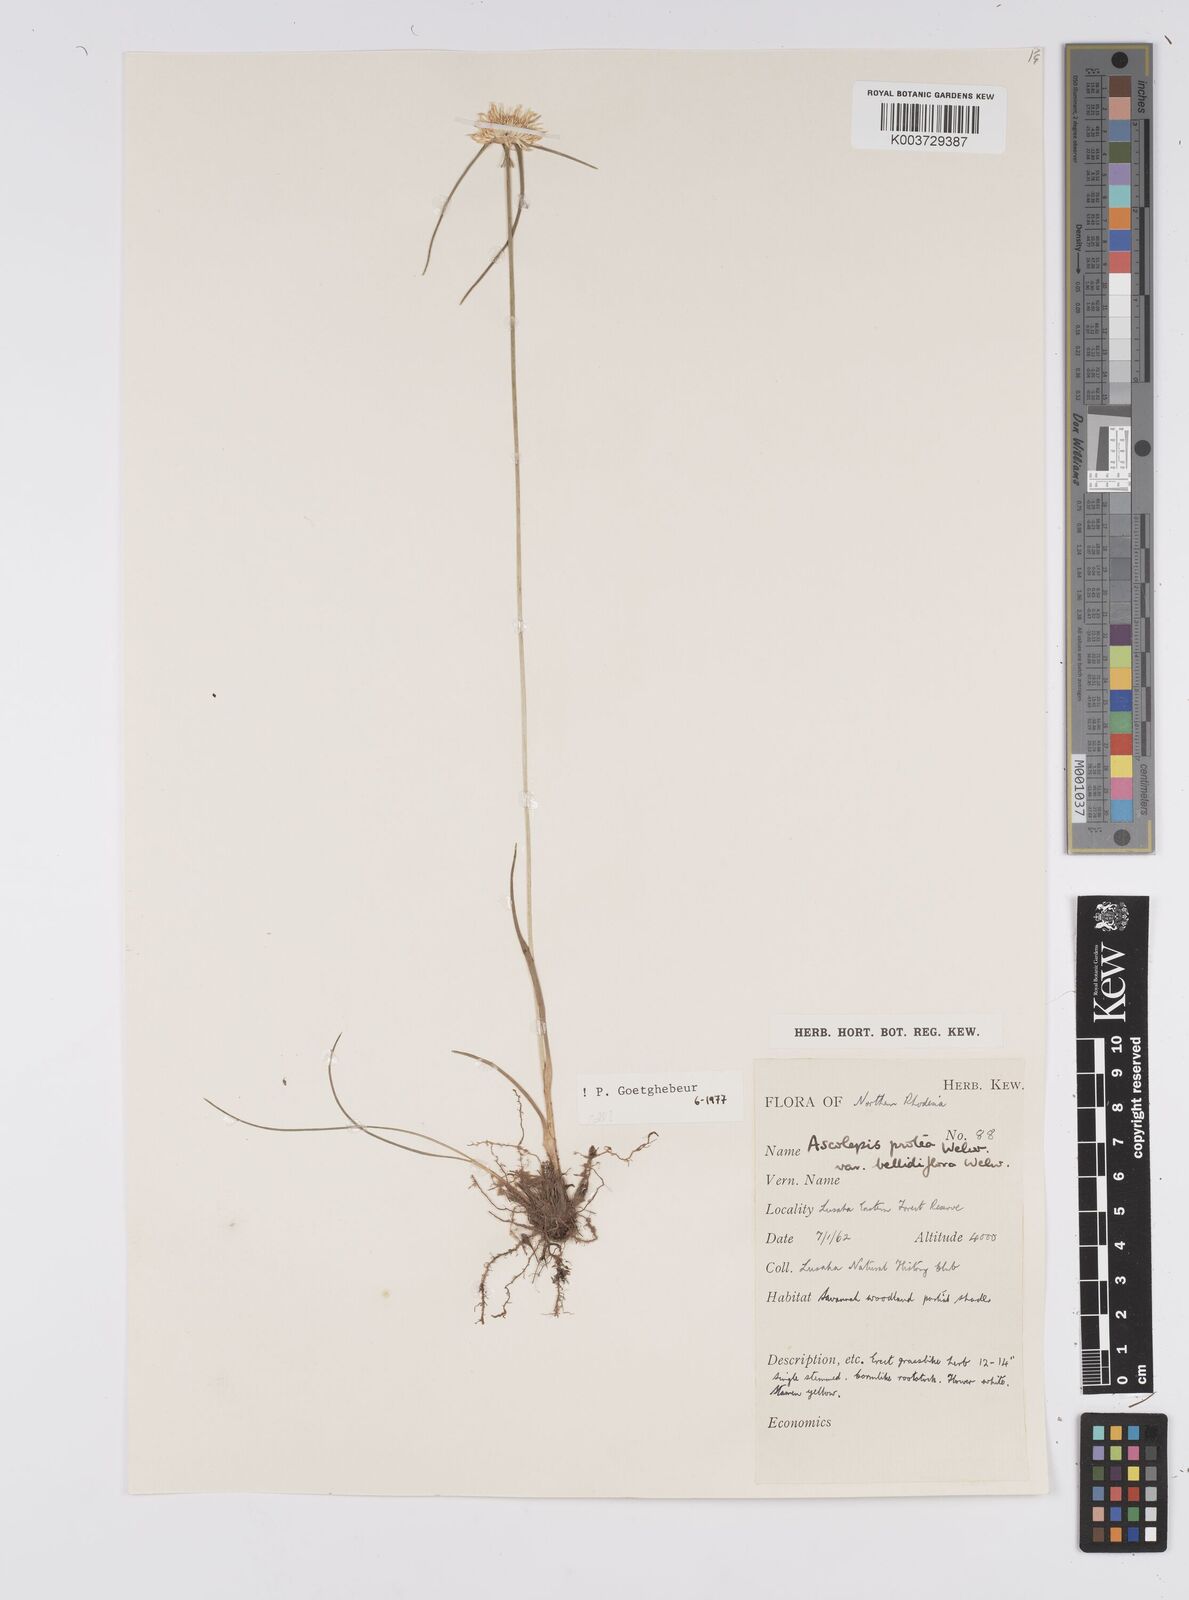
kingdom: Plantae
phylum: Tracheophyta
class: Liliopsida
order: Poales
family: Cyperaceae
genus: Cyperus
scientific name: Cyperus proteus
